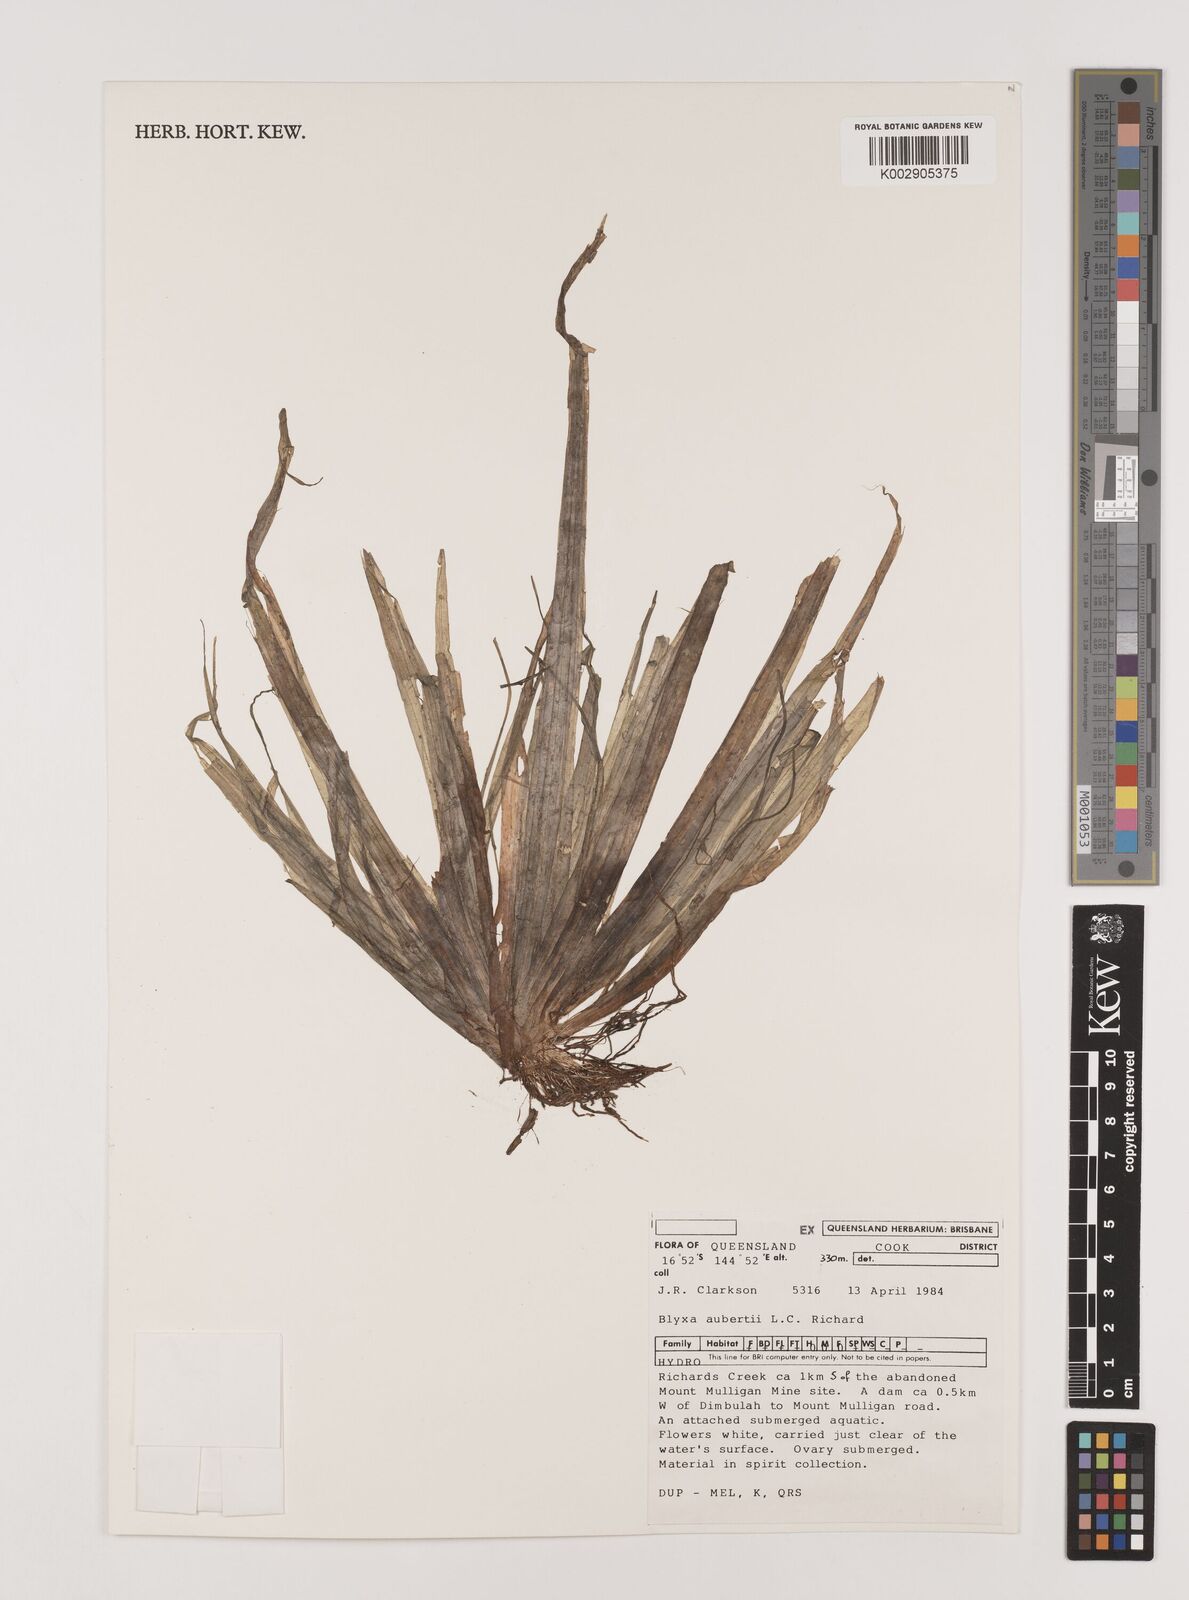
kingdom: Plantae
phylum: Tracheophyta
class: Liliopsida
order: Alismatales
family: Hydrocharitaceae
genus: Blyxa
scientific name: Blyxa aubertii
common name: Roundfruit blyxa
